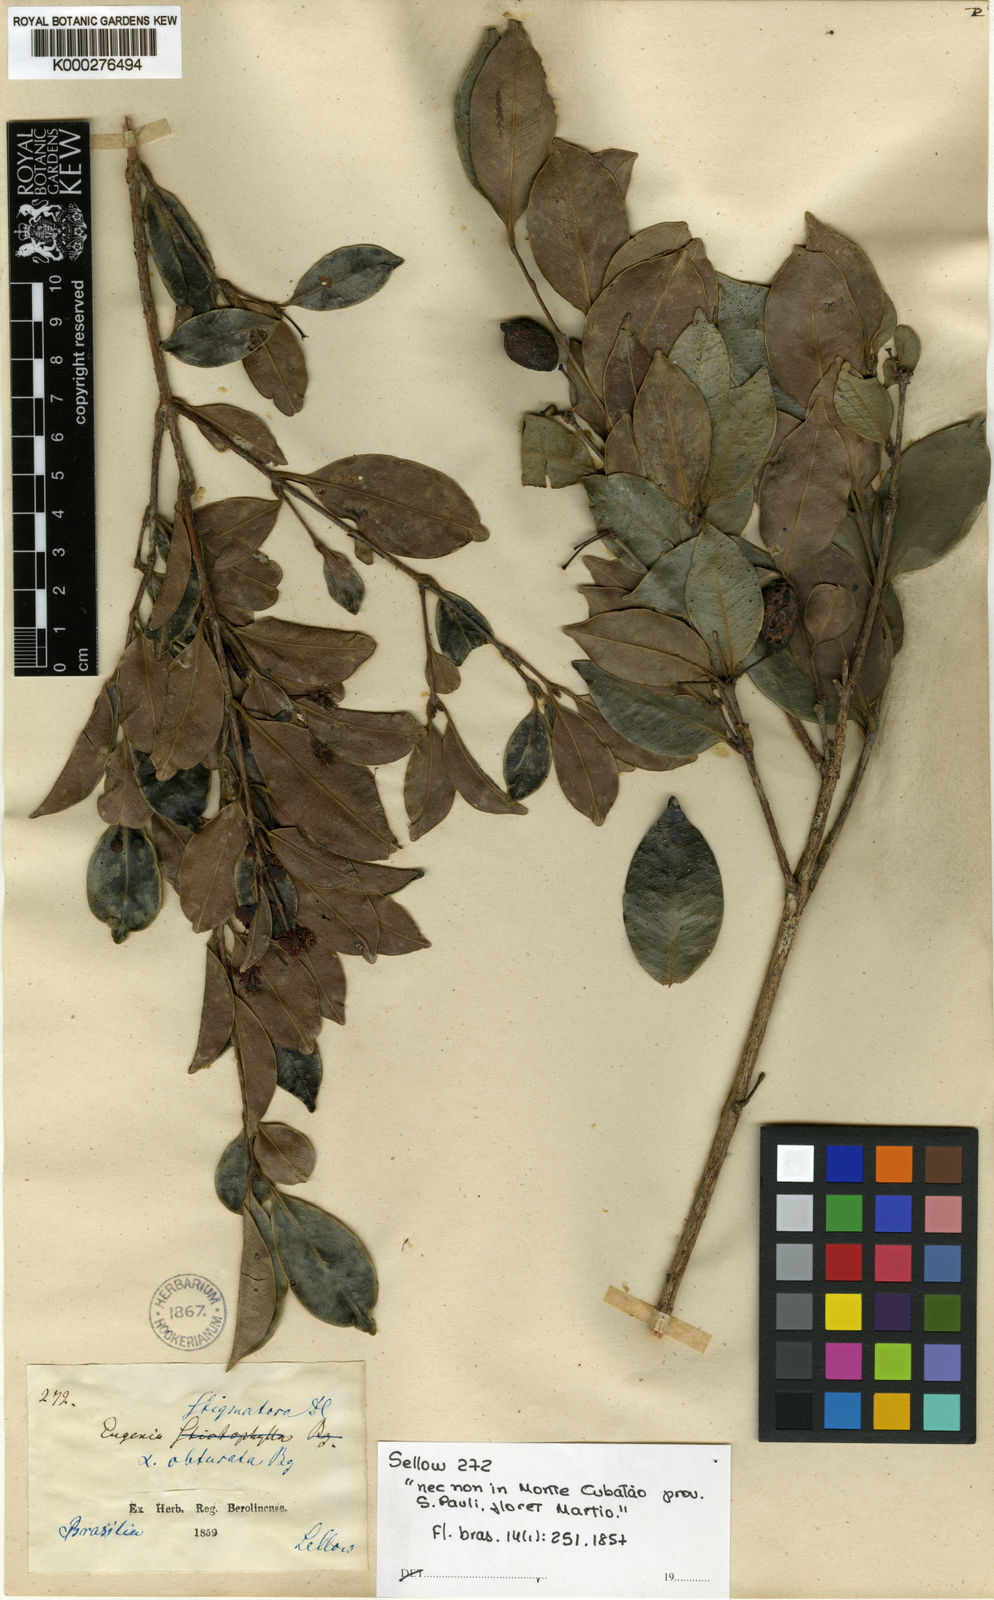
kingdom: Plantae
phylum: Tracheophyta
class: Magnoliopsida
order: Myrtales
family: Myrtaceae
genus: Eugenia
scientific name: Eugenia stigmatosa
